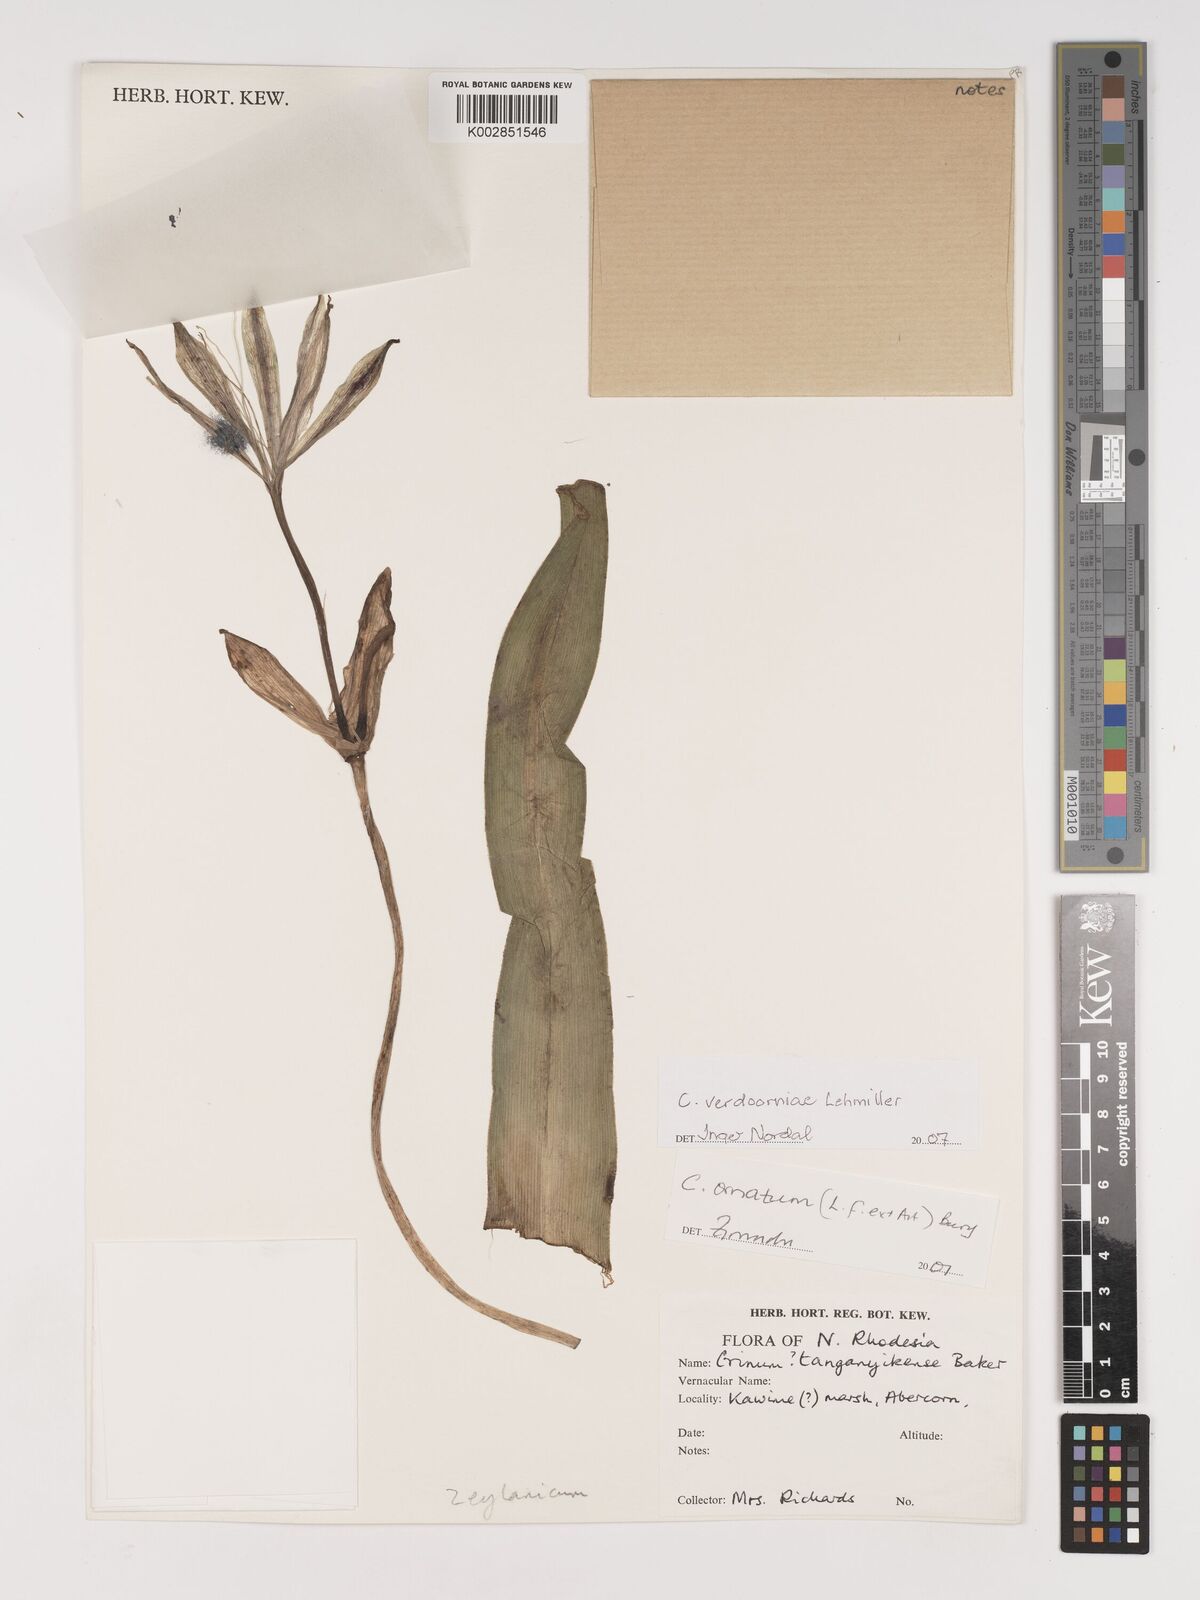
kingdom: Plantae
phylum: Tracheophyta
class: Liliopsida
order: Asparagales
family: Amaryllidaceae
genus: Crinum
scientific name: Crinum verdoorniae
